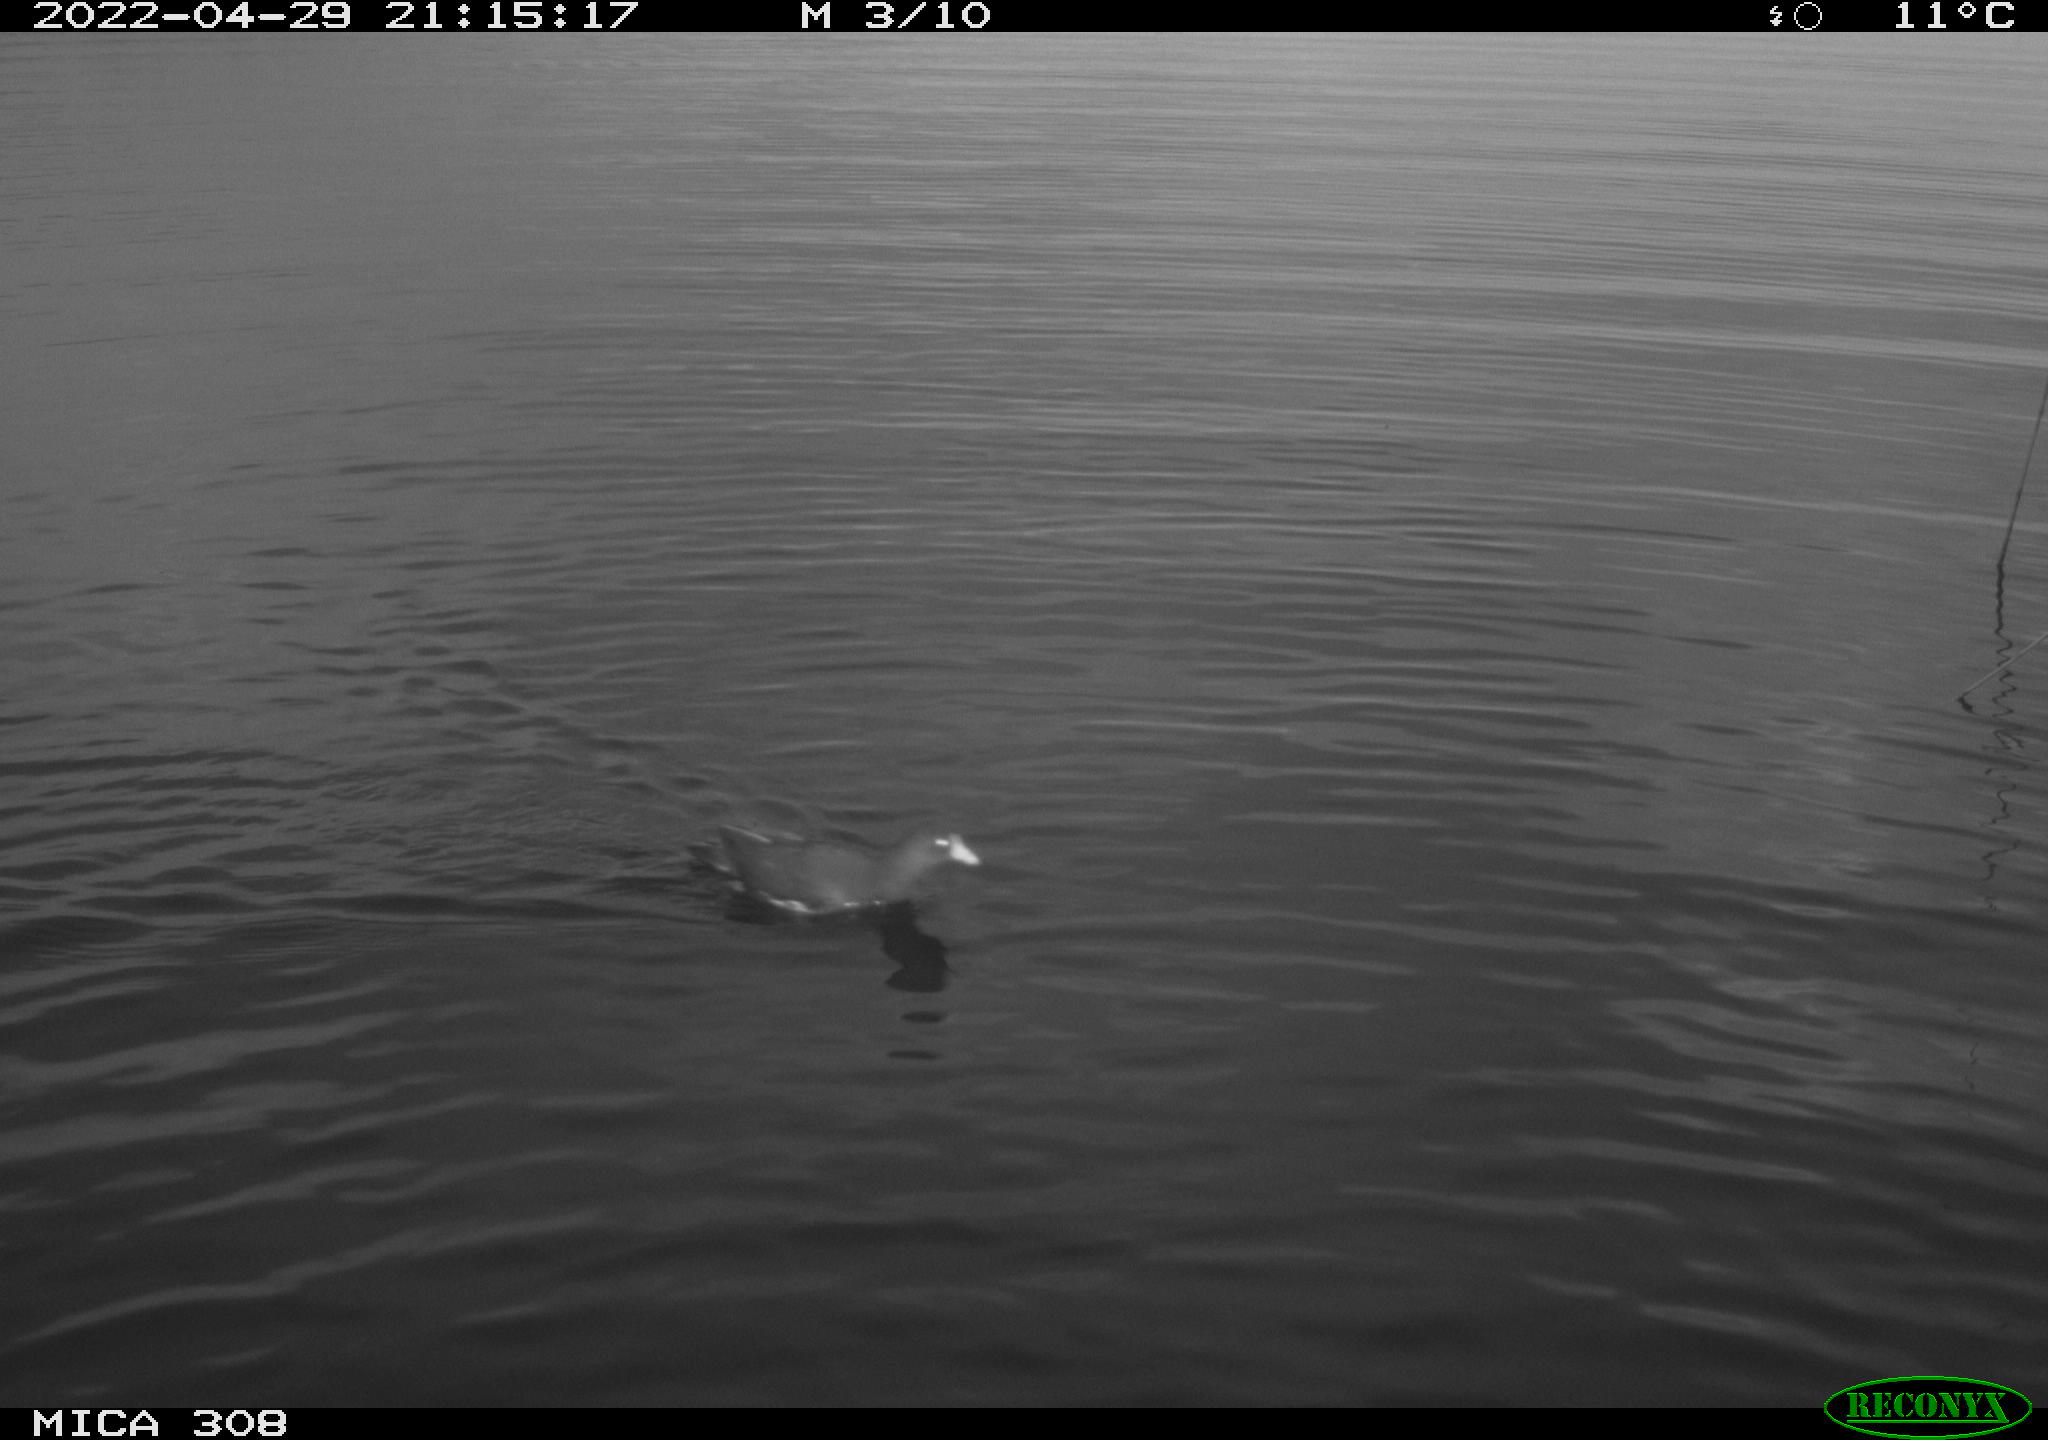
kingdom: Animalia
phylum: Chordata
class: Aves
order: Gruiformes
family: Rallidae
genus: Gallinula
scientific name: Gallinula chloropus
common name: Common moorhen
